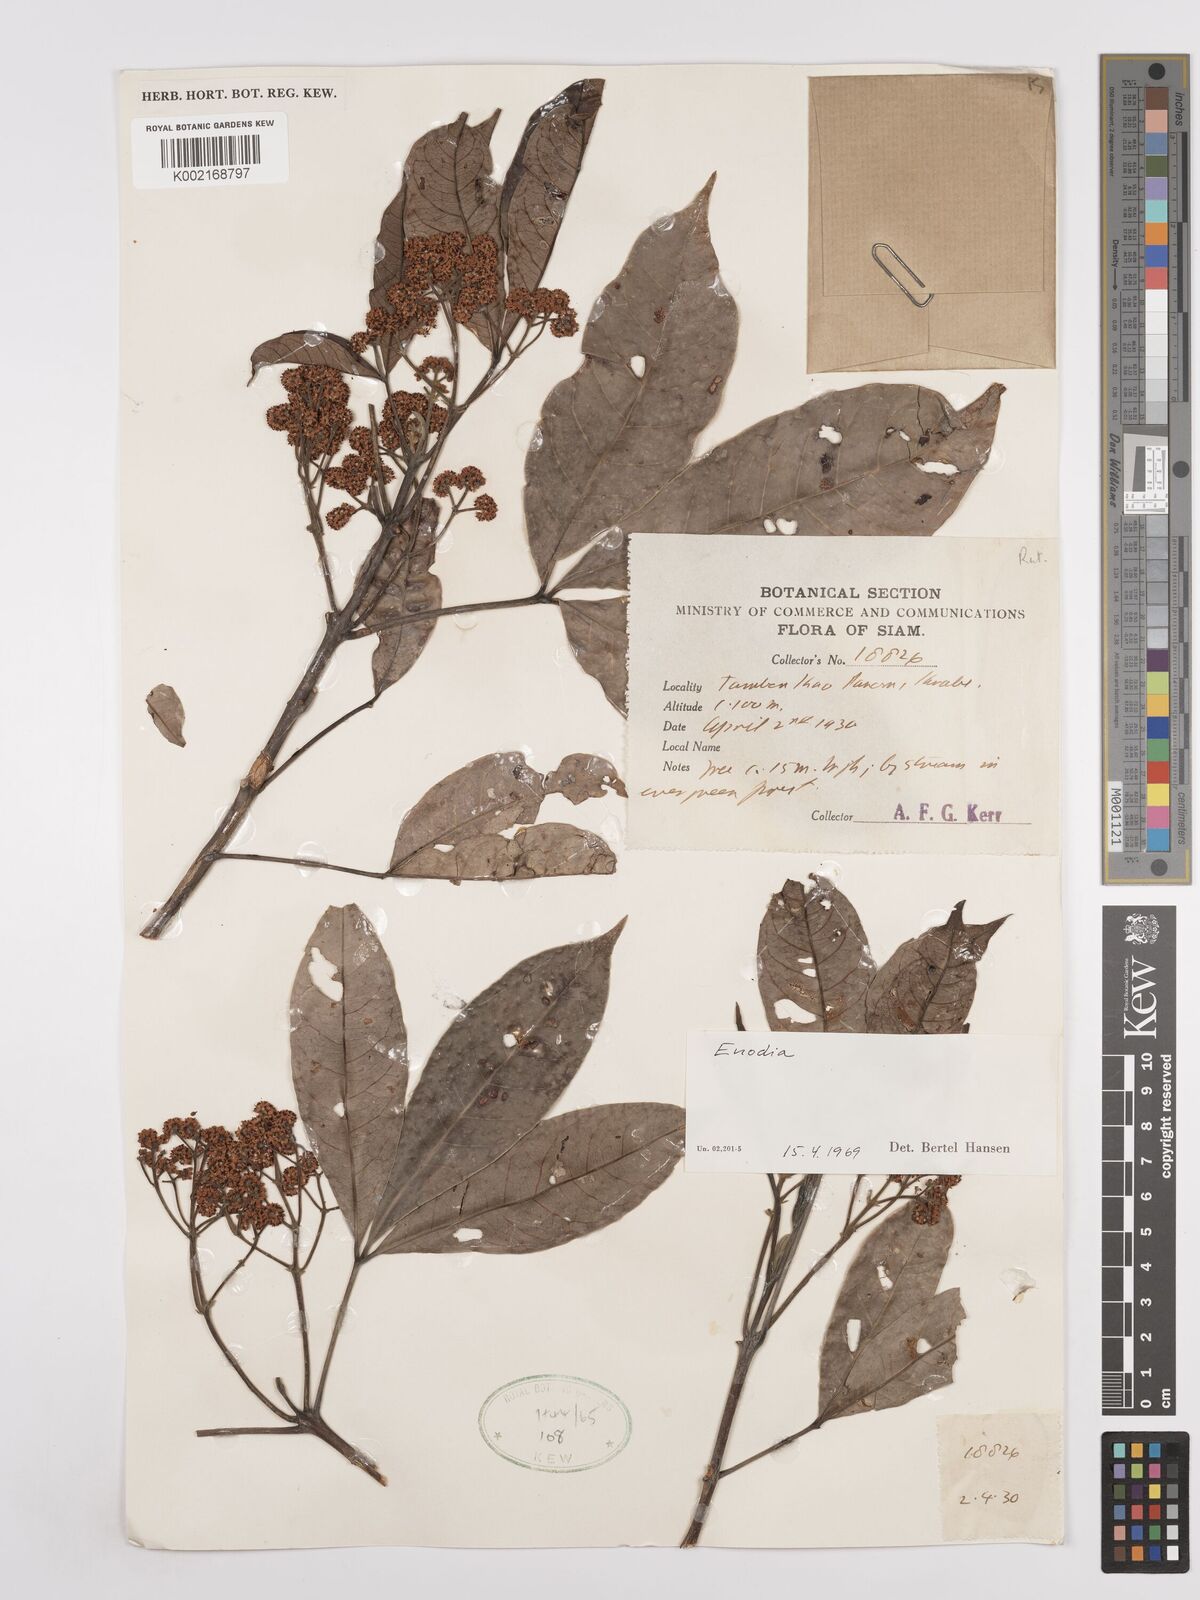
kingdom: Plantae
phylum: Tracheophyta
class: Magnoliopsida
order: Sapindales
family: Rutaceae
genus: Euodia
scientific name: Euodia
